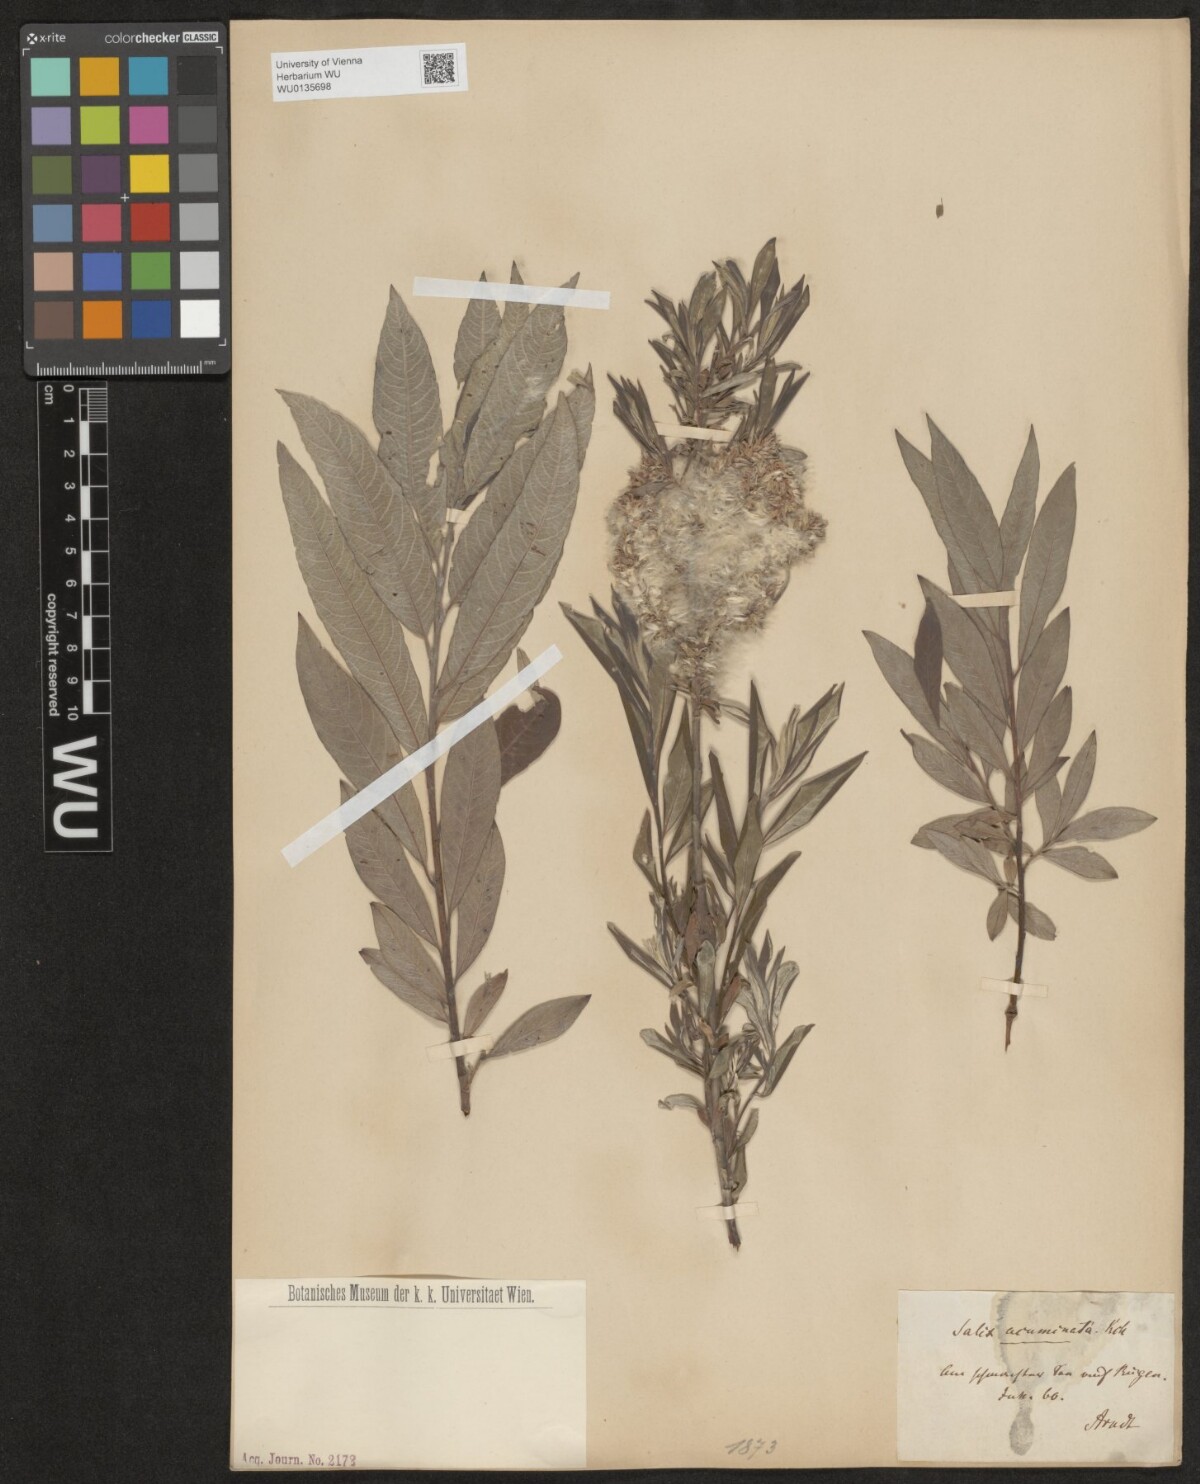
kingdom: Plantae
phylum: Tracheophyta
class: Magnoliopsida
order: Malpighiales
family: Salicaceae
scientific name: Salicaceae
